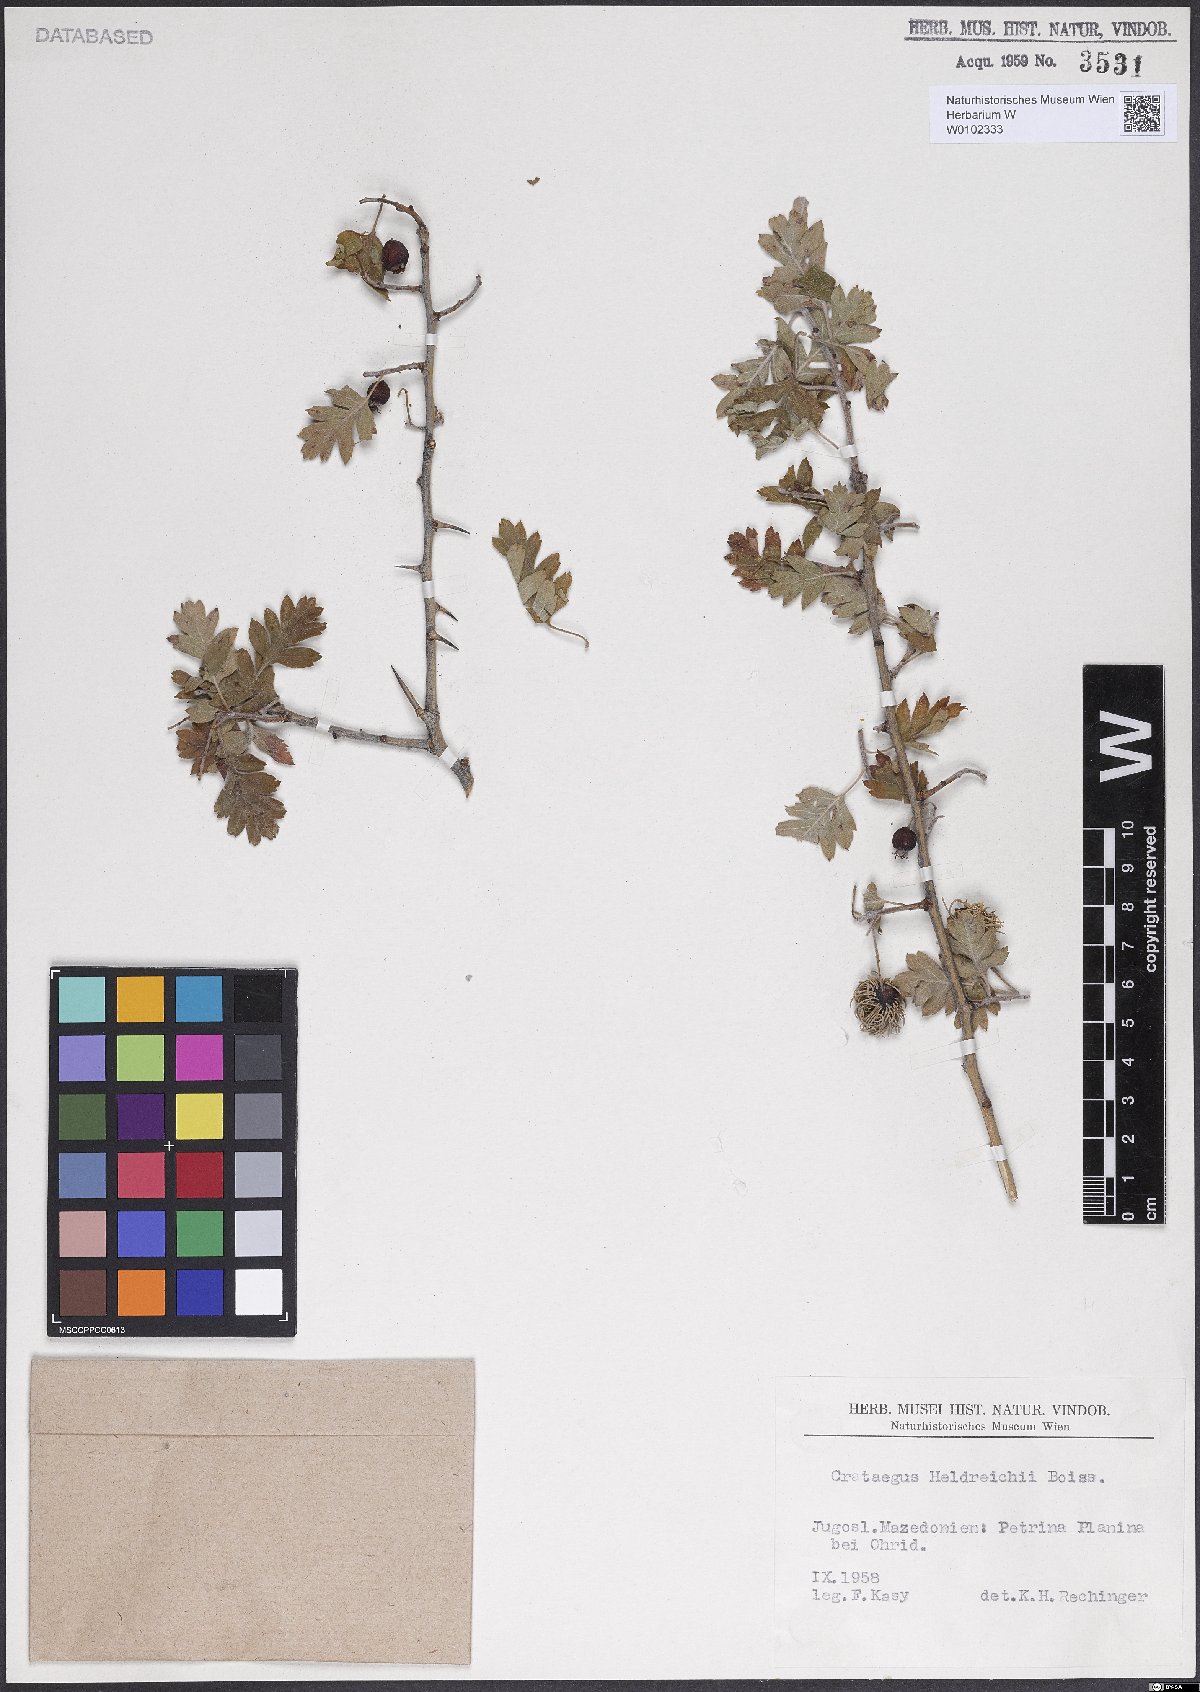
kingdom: Plantae
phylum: Tracheophyta
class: Magnoliopsida
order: Rosales
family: Rosaceae
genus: Crataegus
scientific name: Crataegus heldreichii
